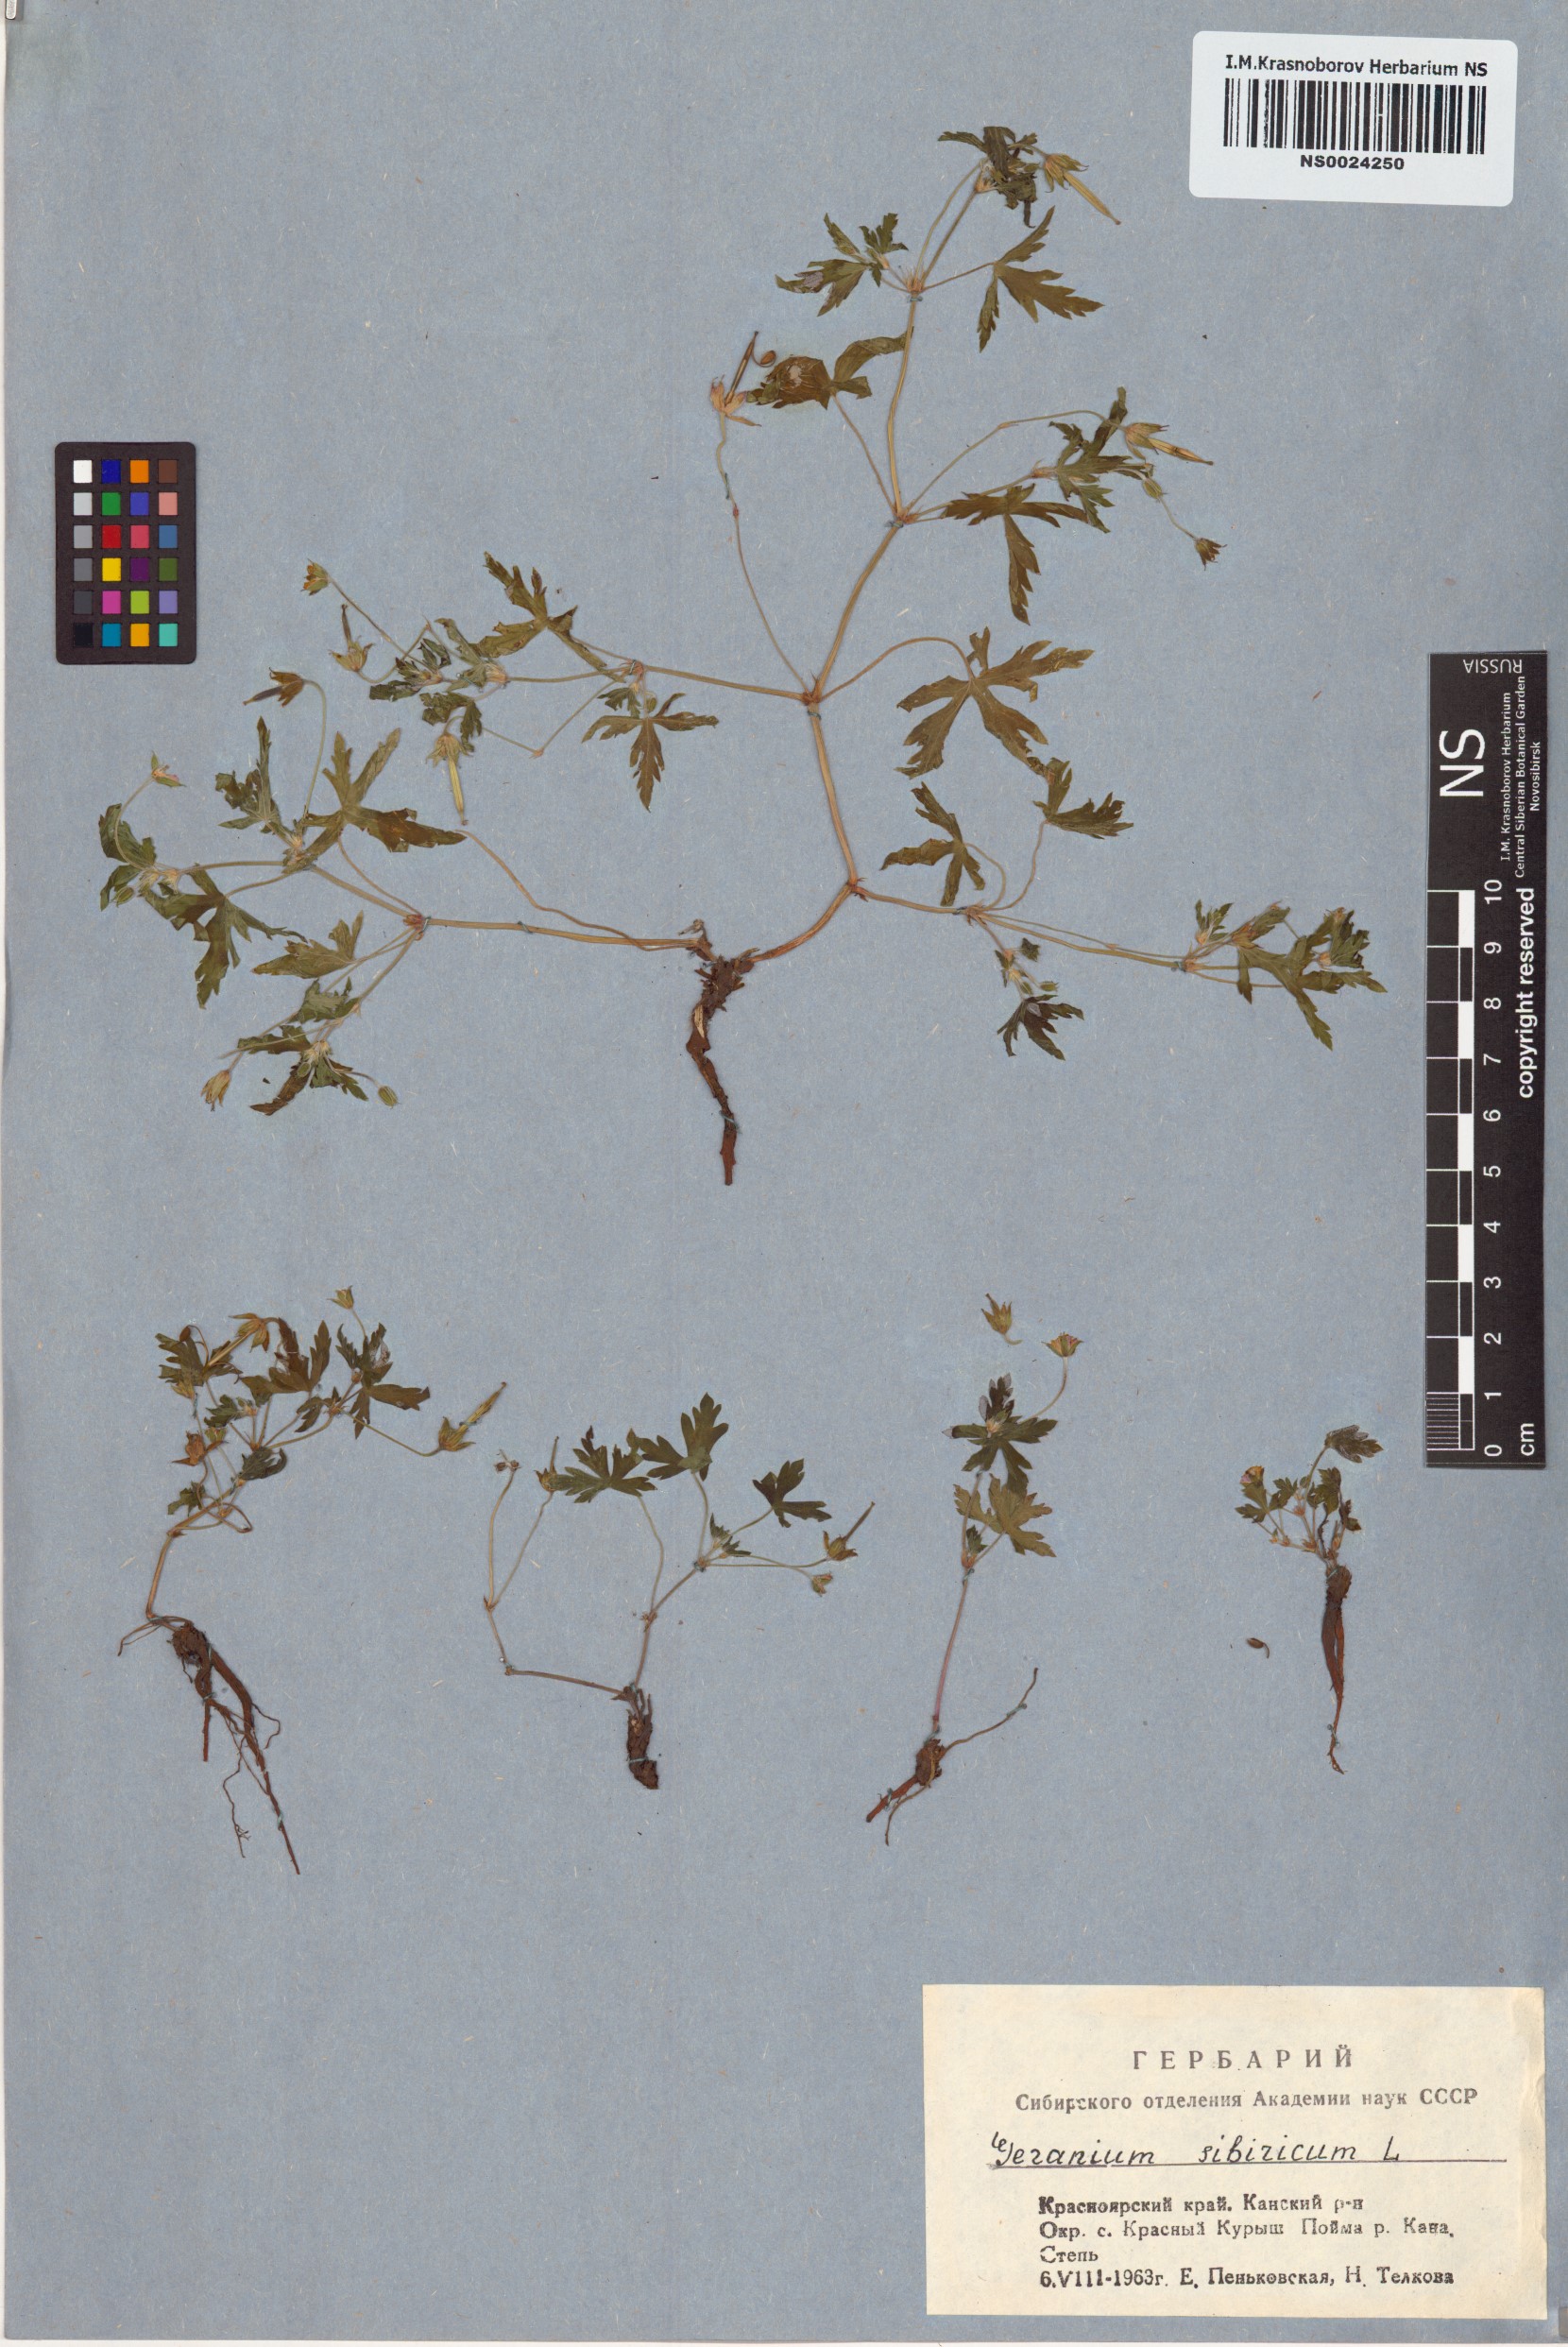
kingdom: Plantae
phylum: Tracheophyta
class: Magnoliopsida
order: Geraniales
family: Geraniaceae
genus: Geranium
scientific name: Geranium sibiricum
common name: Siberian crane's-bill
